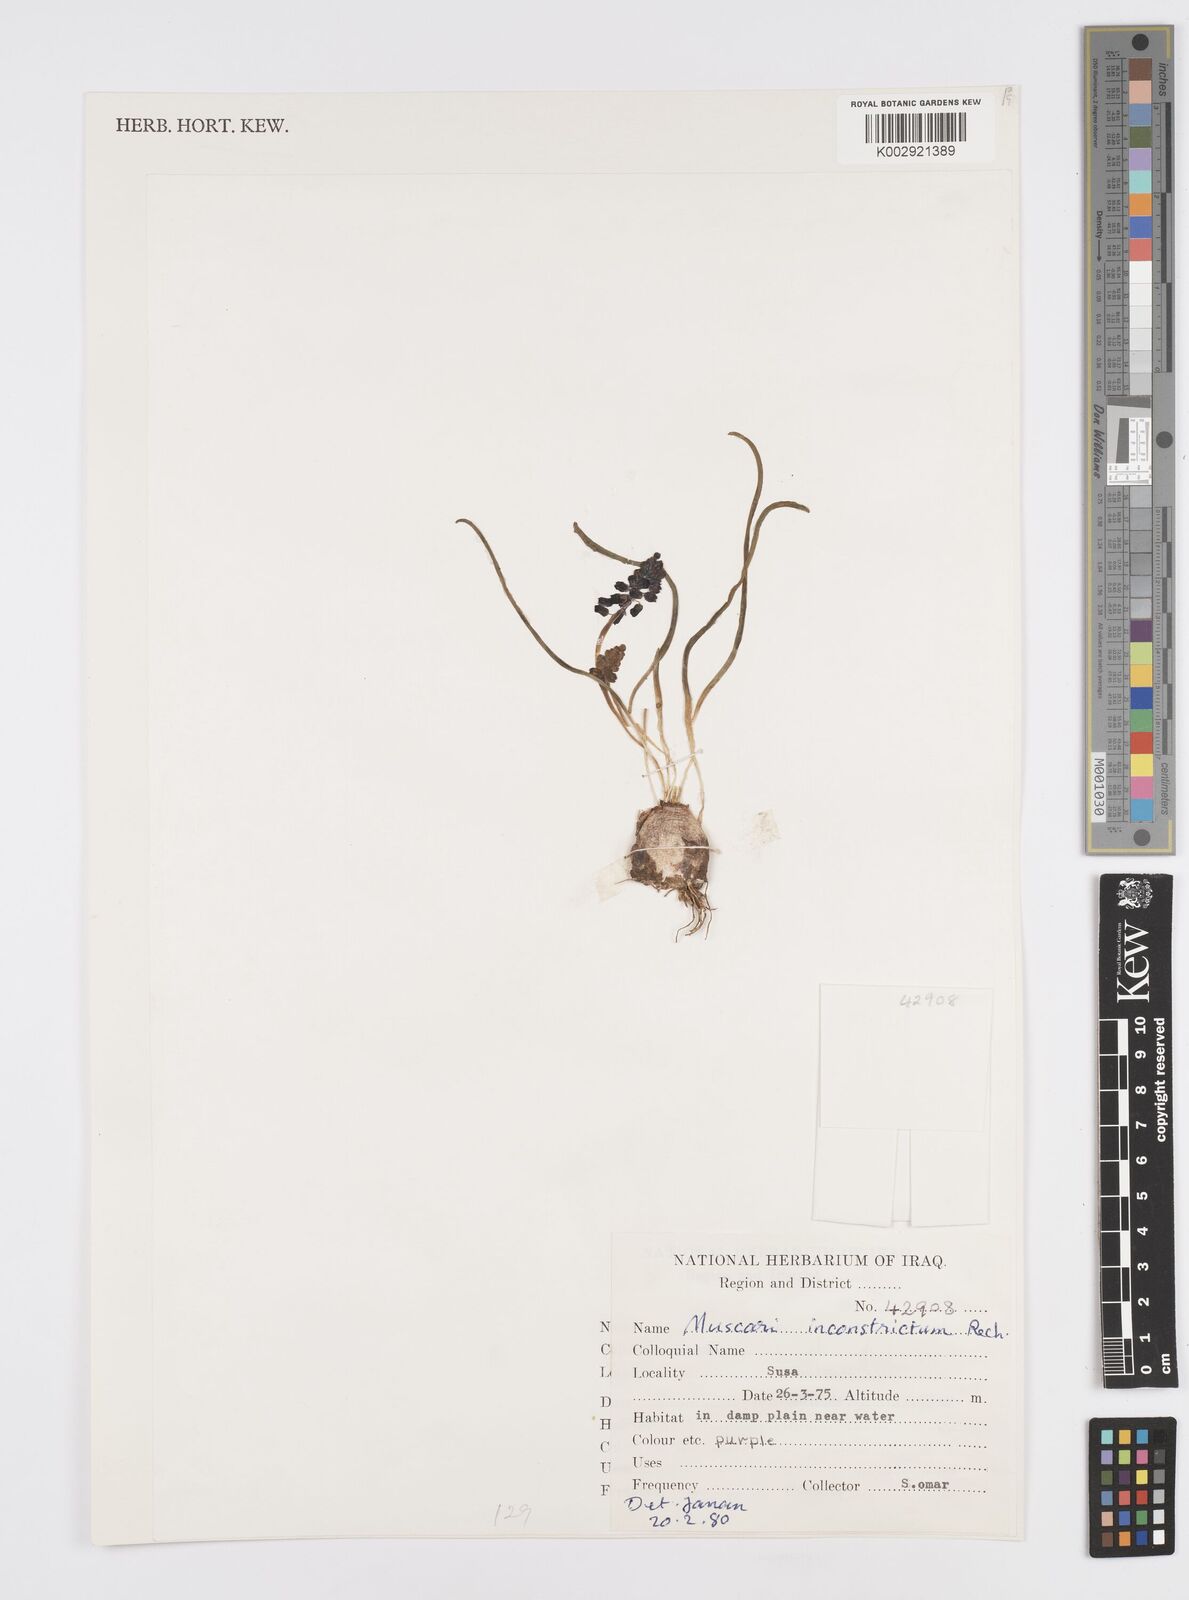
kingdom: Plantae
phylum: Tracheophyta
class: Liliopsida
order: Asparagales
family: Asparagaceae
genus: Muscari
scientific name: Muscari inconstrictum
